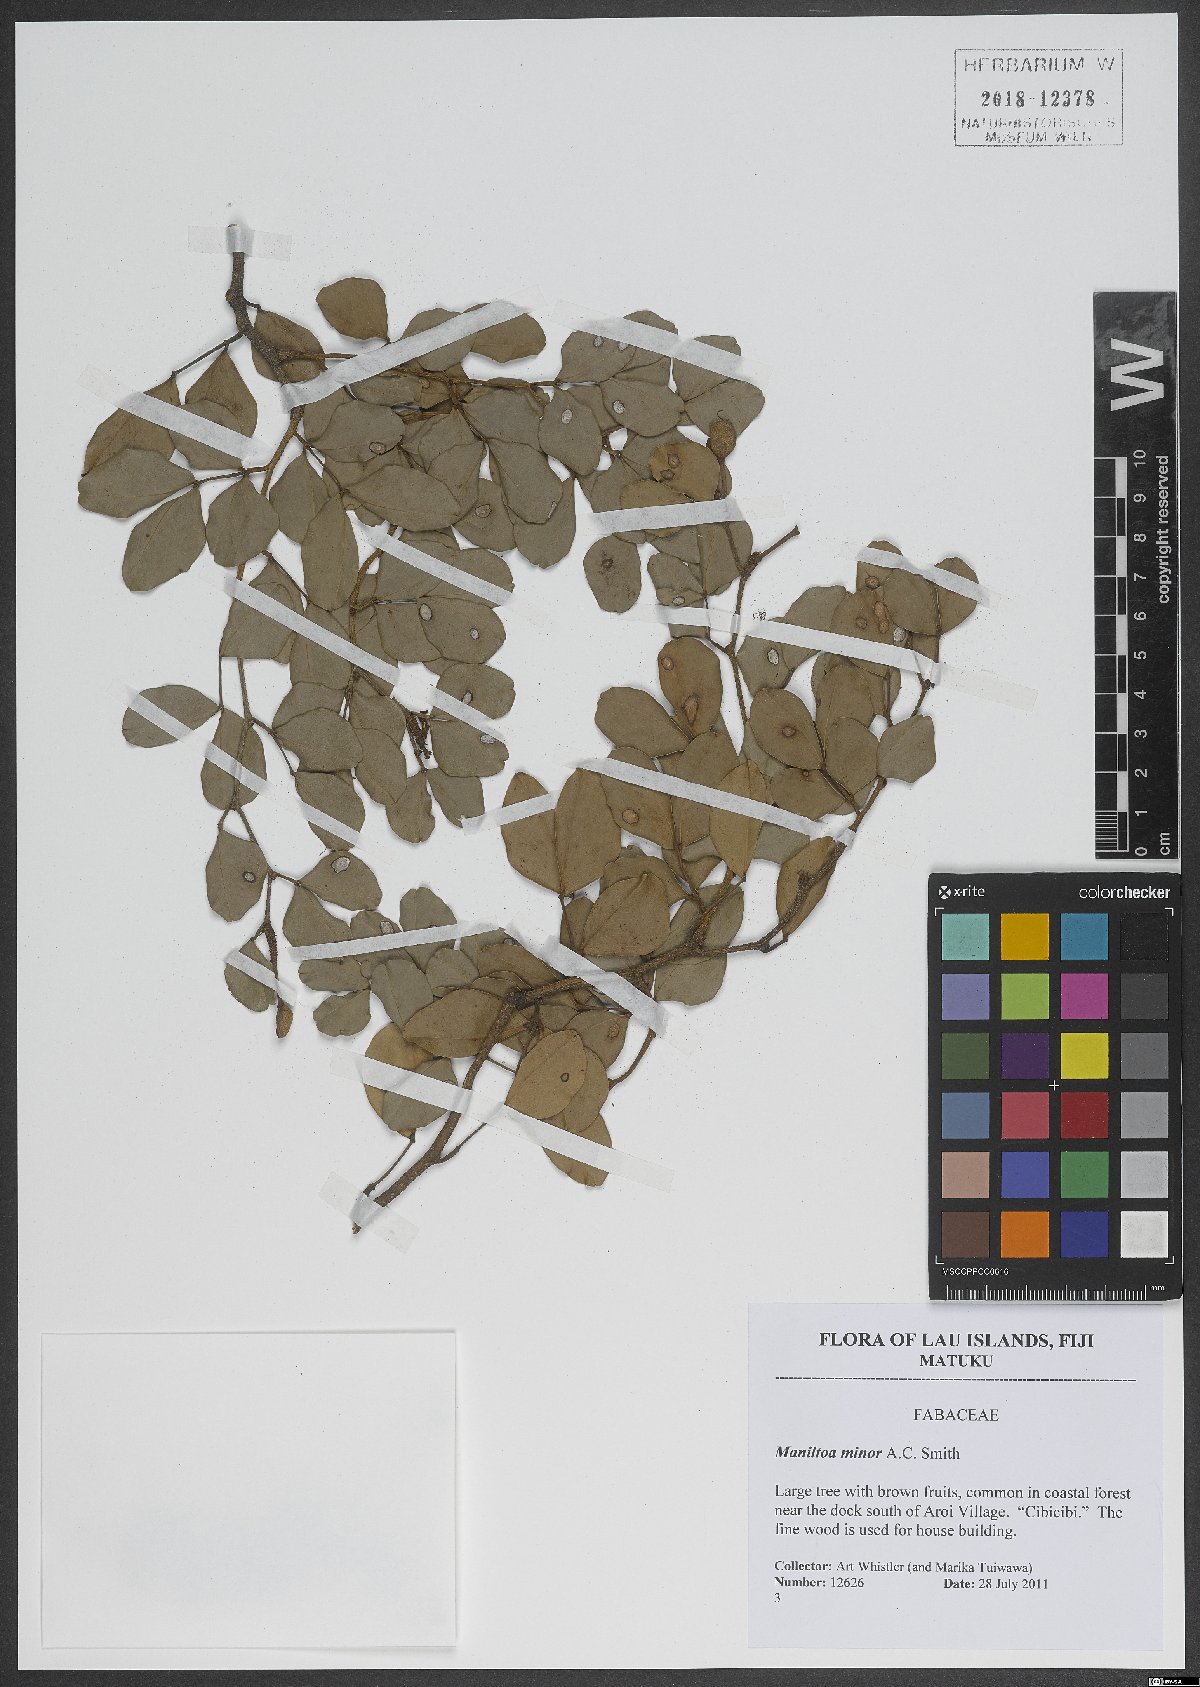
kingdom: Plantae
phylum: Tracheophyta
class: Magnoliopsida
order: Fabales
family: Fabaceae
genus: Cynometra
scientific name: Cynometra minor
